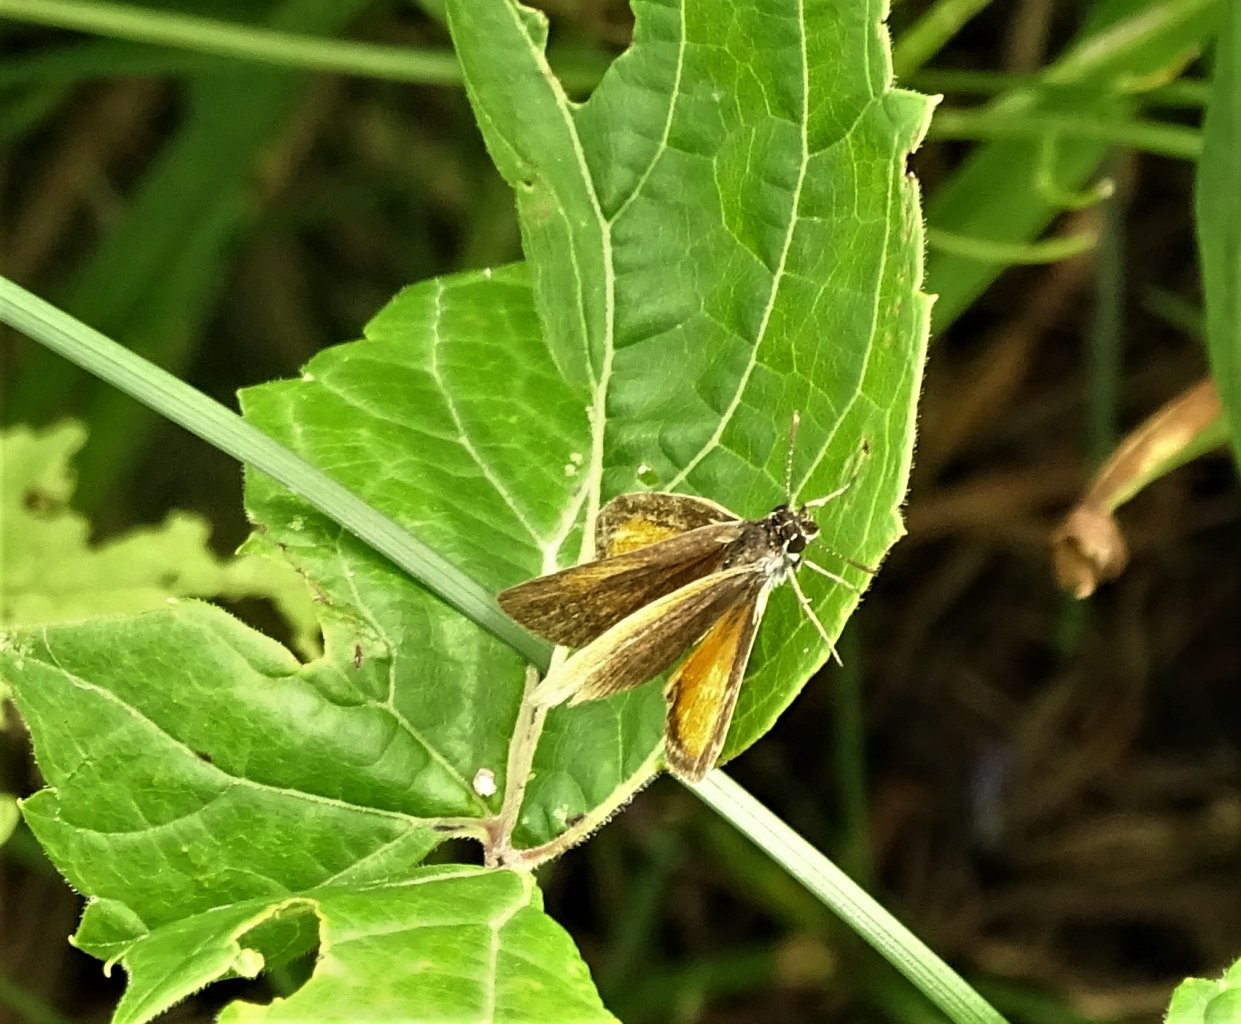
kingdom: Animalia
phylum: Arthropoda
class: Insecta
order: Lepidoptera
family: Hesperiidae
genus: Ancyloxypha
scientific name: Ancyloxypha numitor
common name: Least Skipper
